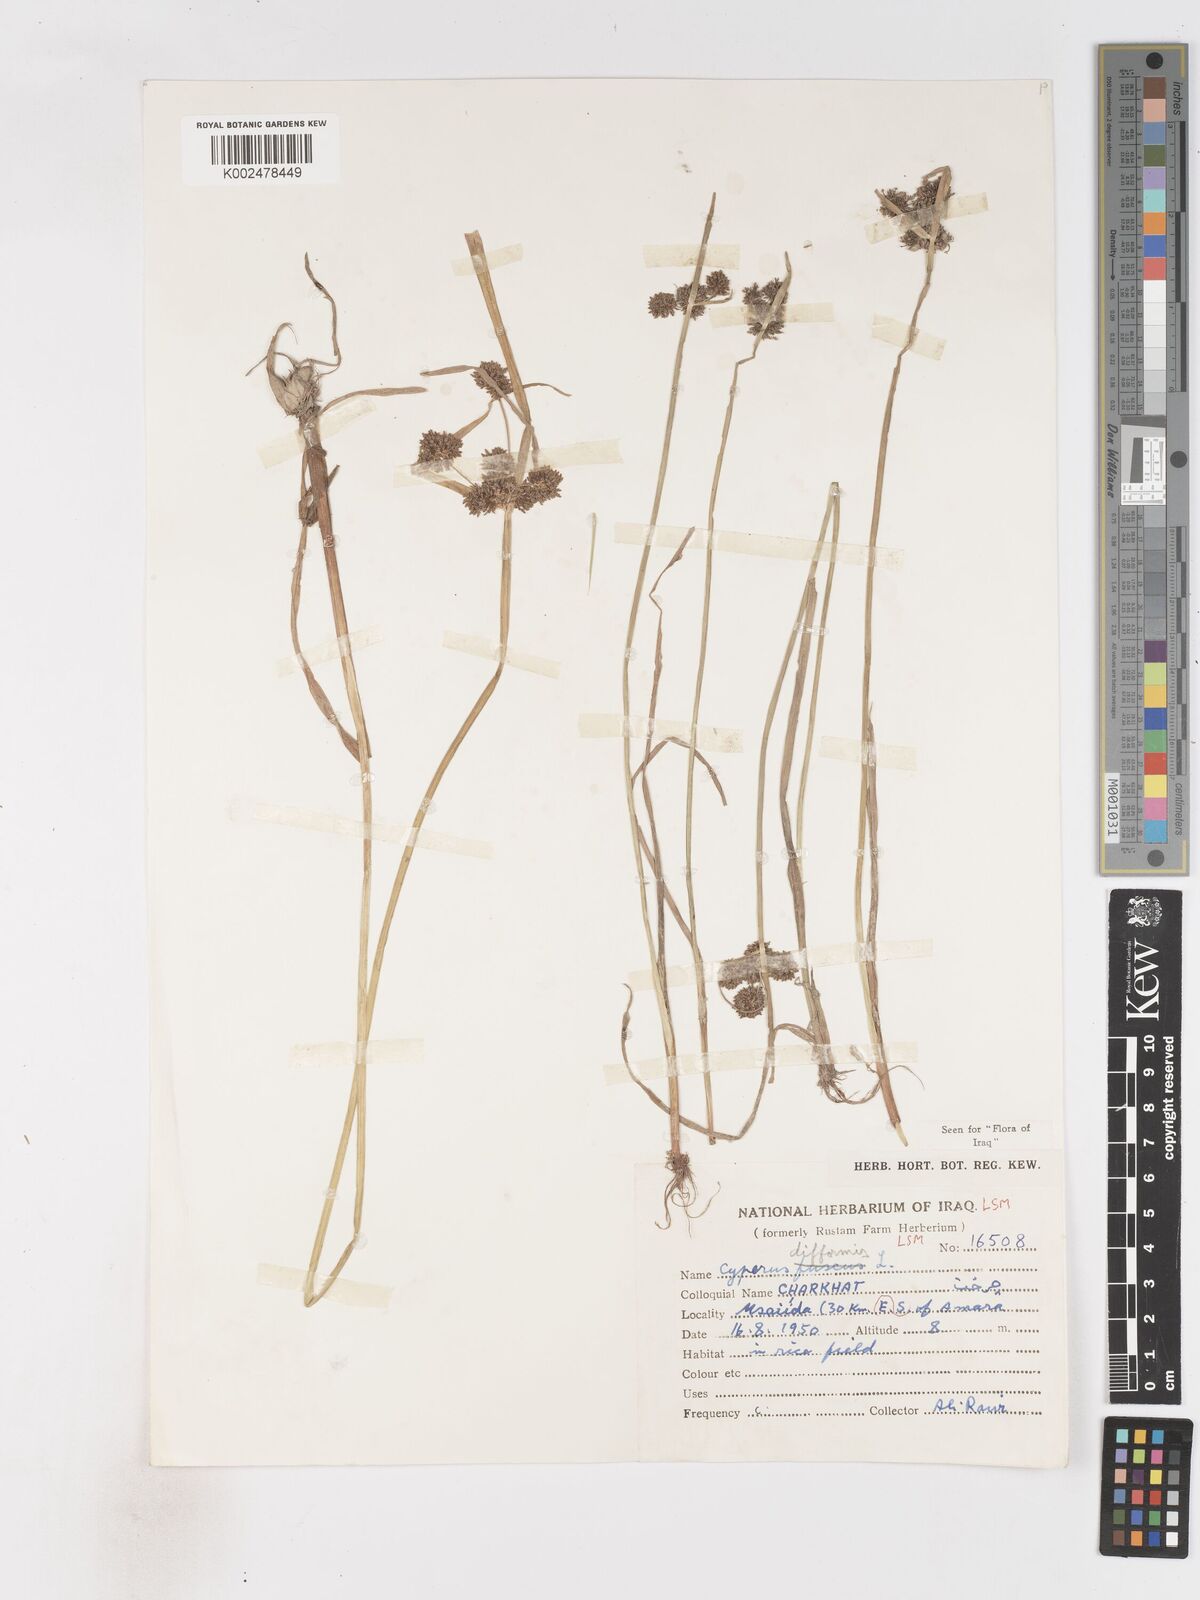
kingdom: Plantae
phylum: Tracheophyta
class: Liliopsida
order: Poales
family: Cyperaceae
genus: Cyperus
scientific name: Cyperus difformis
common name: Variable flatsedge
